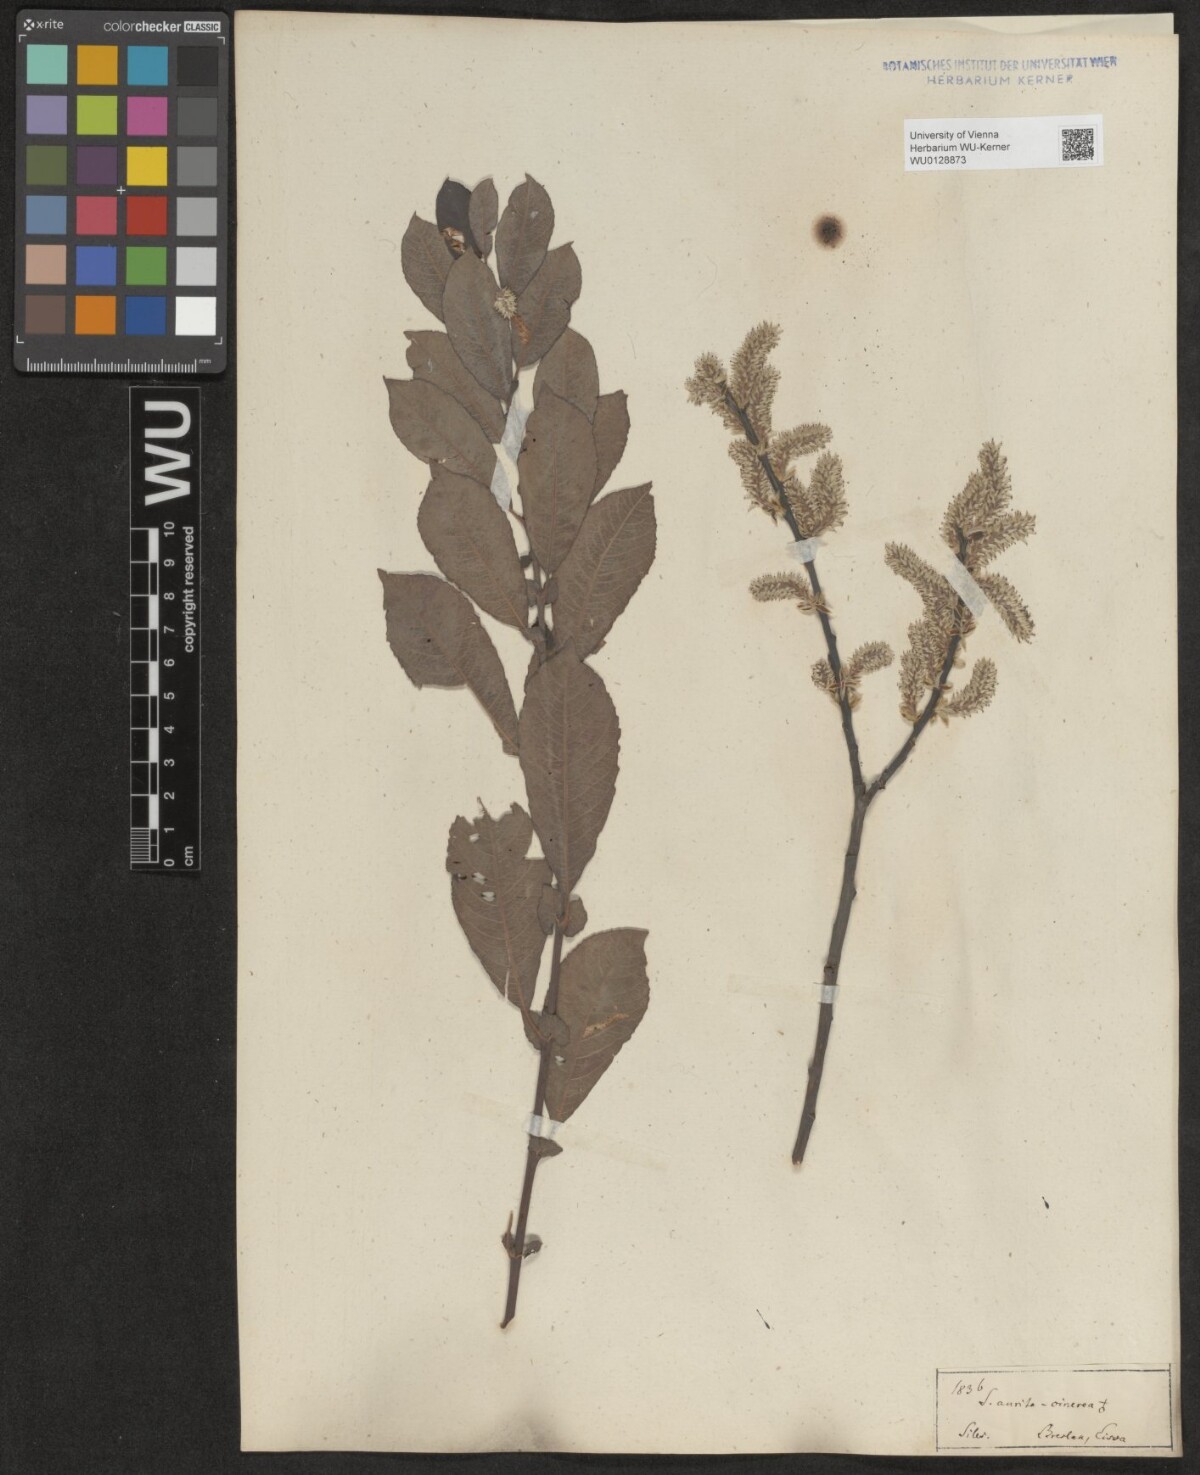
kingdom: Plantae
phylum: Tracheophyta
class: Magnoliopsida
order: Malpighiales
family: Salicaceae
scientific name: Salicaceae
